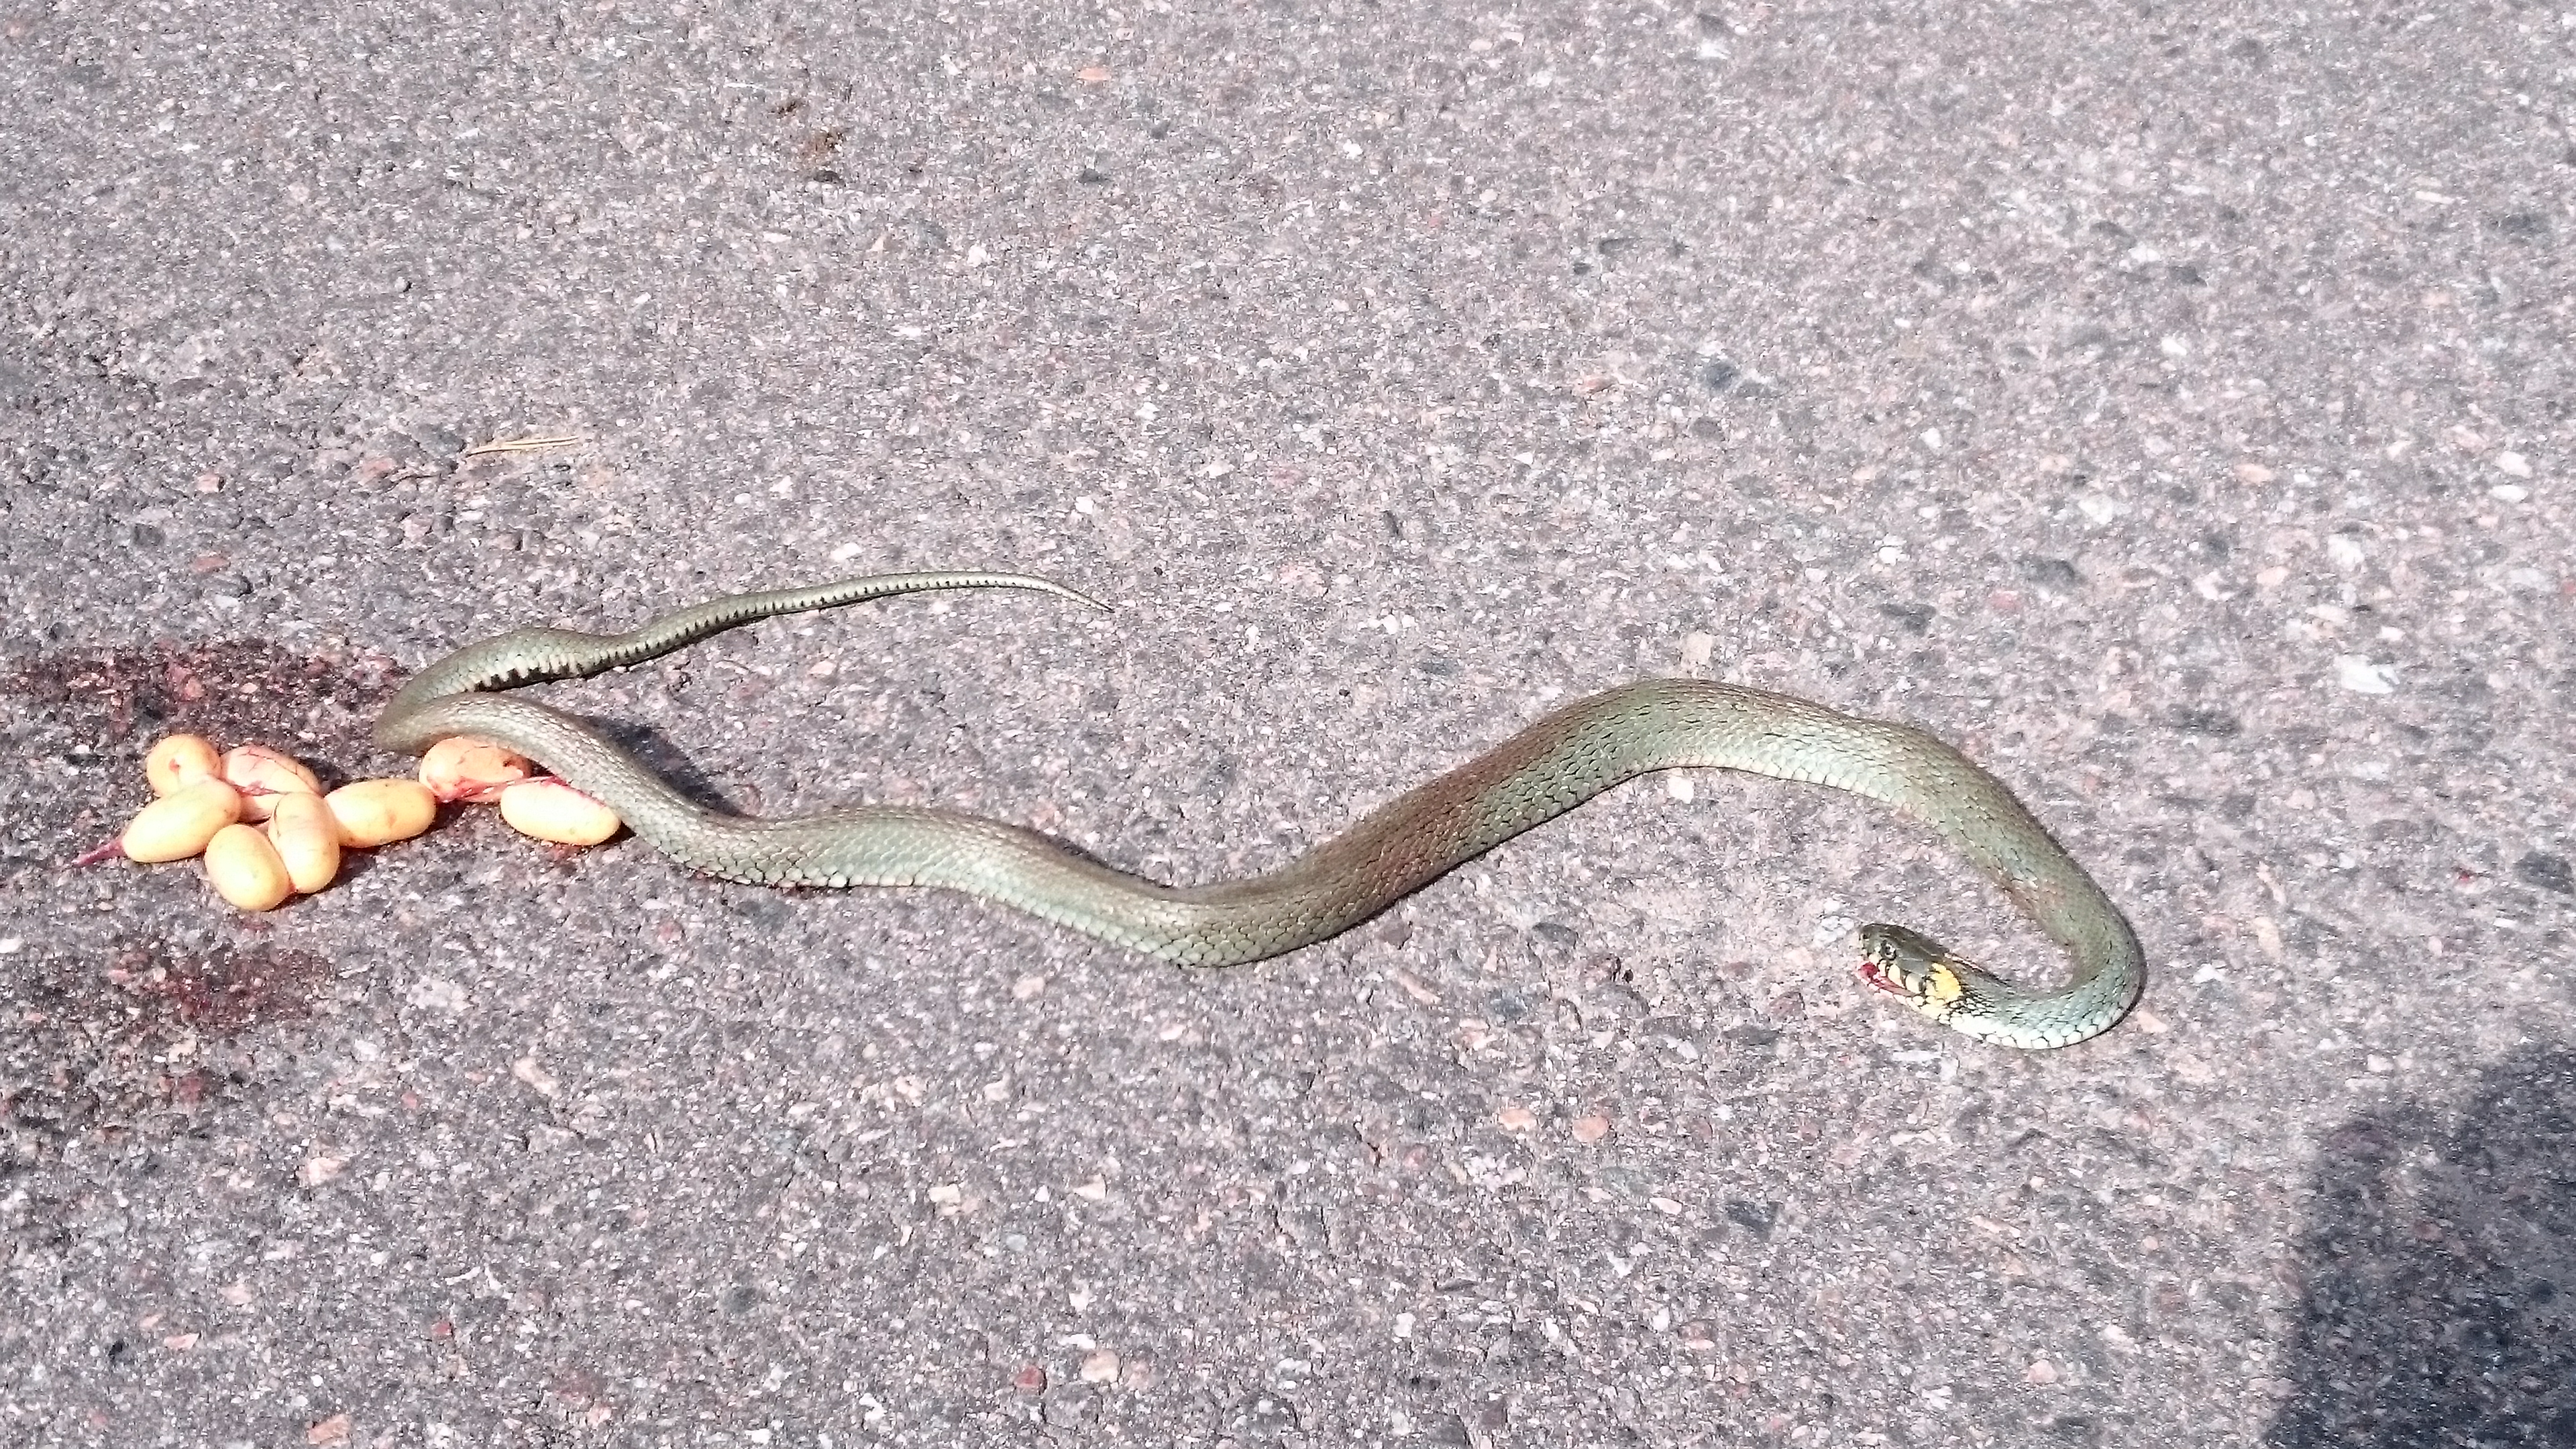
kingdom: Animalia
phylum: Chordata
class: Squamata
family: Colubridae
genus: Natrix
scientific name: Natrix natrix
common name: Grass snake
